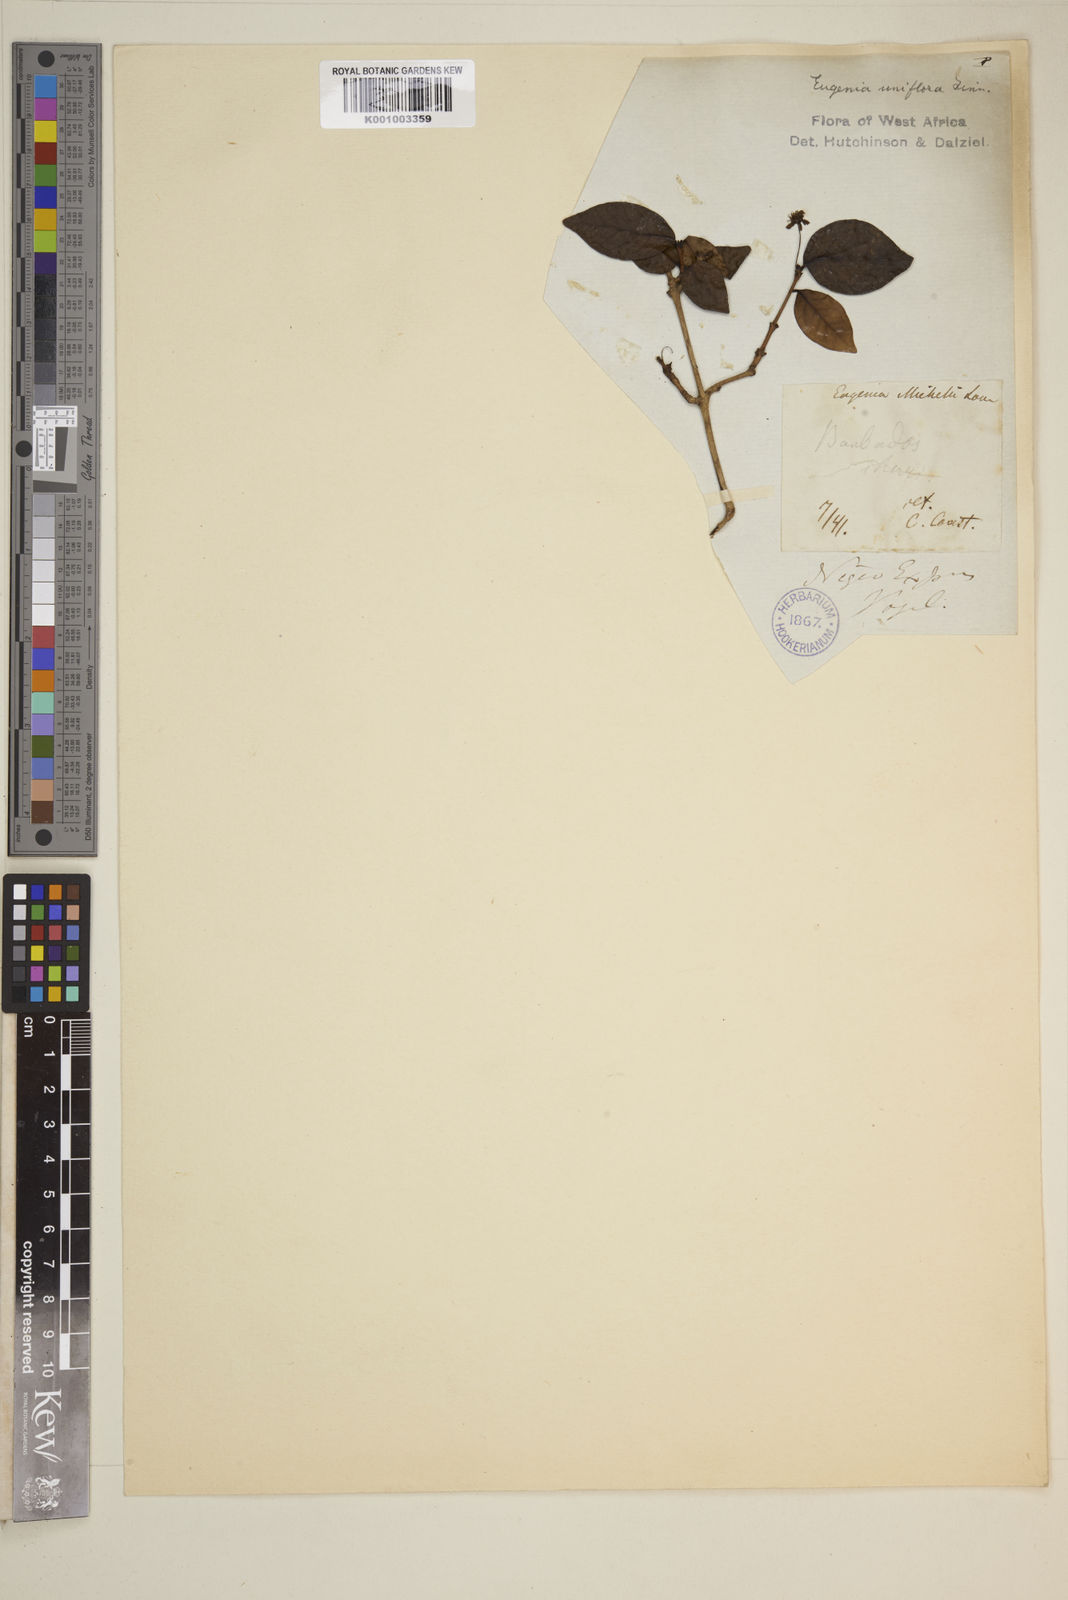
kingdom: Plantae
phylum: Tracheophyta
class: Magnoliopsida
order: Myrtales
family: Myrtaceae
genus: Eugenia
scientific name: Eugenia uniflora
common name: Surinam cherry
